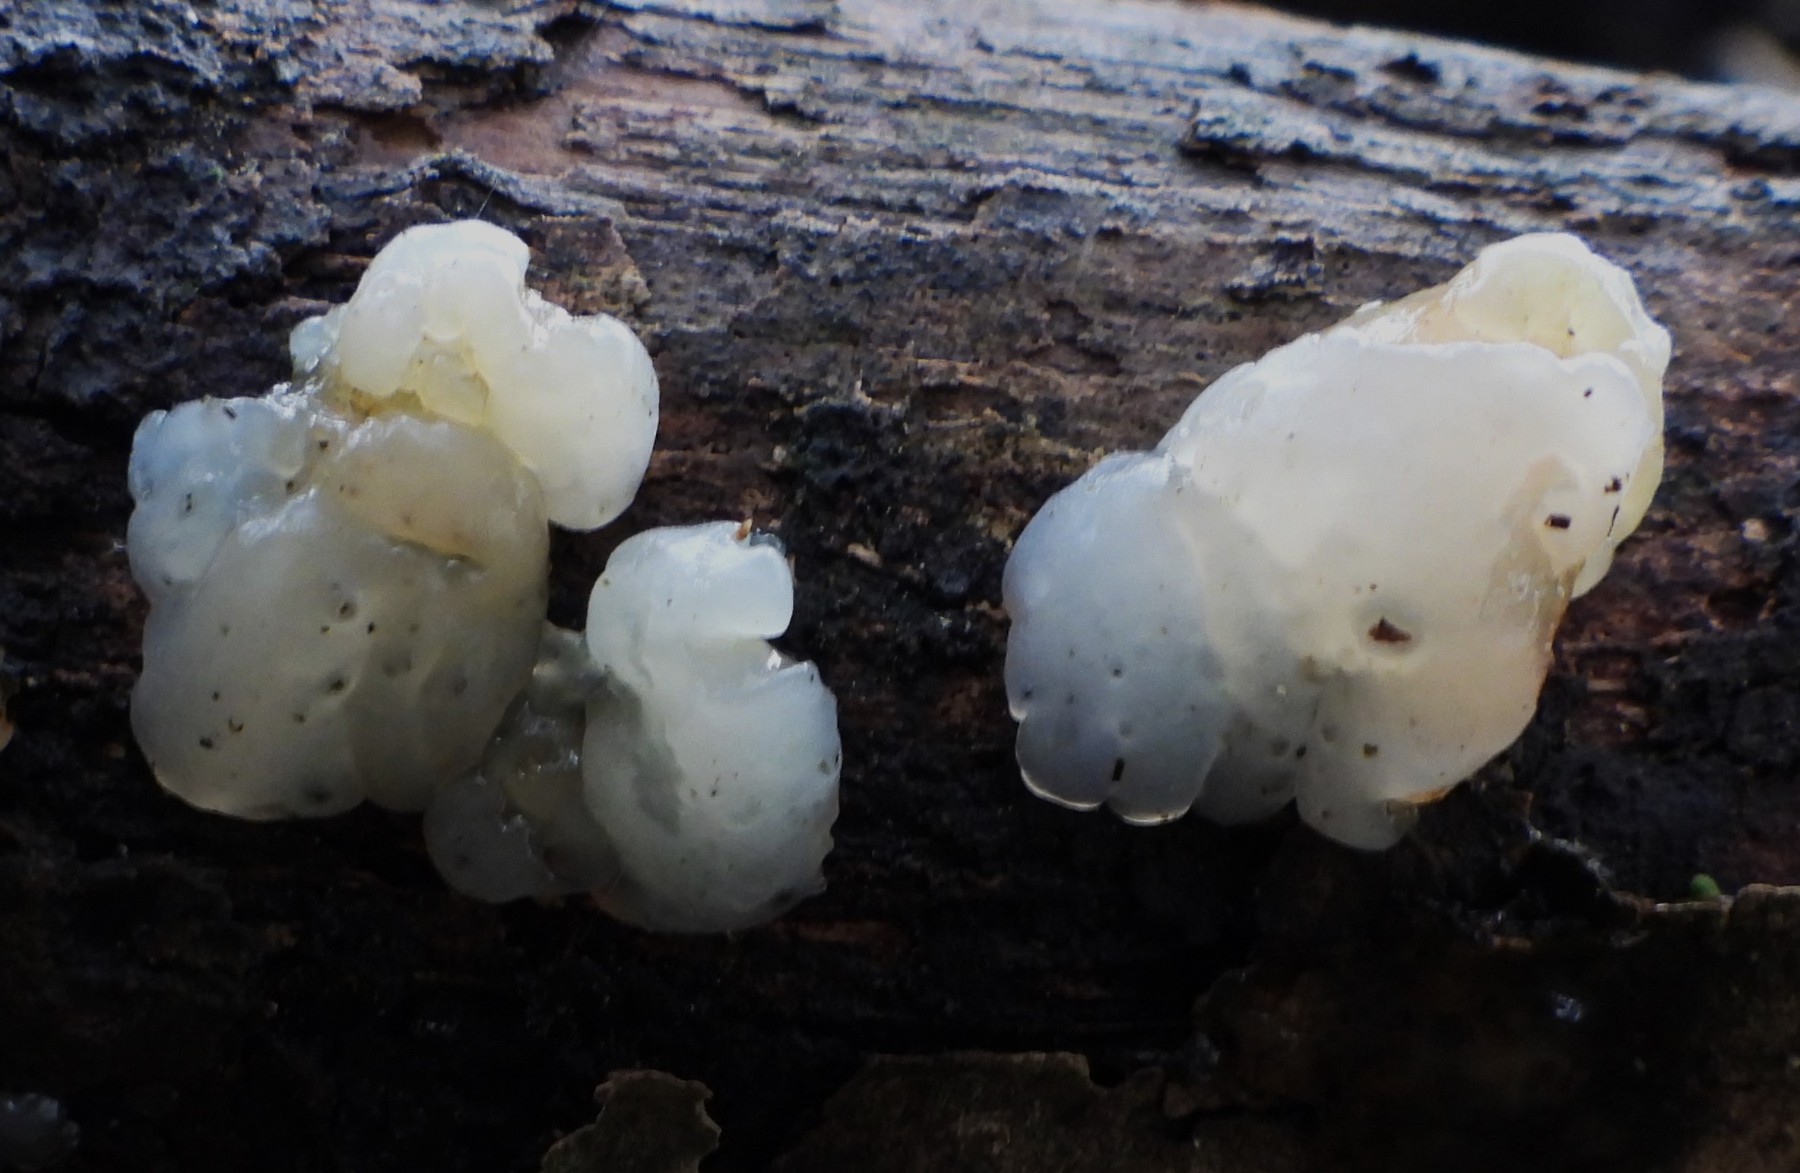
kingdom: Fungi
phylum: Basidiomycota
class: Agaricomycetes
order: Auriculariales
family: Hyaloriaceae
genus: Myxarium
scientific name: Myxarium
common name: bævretop
